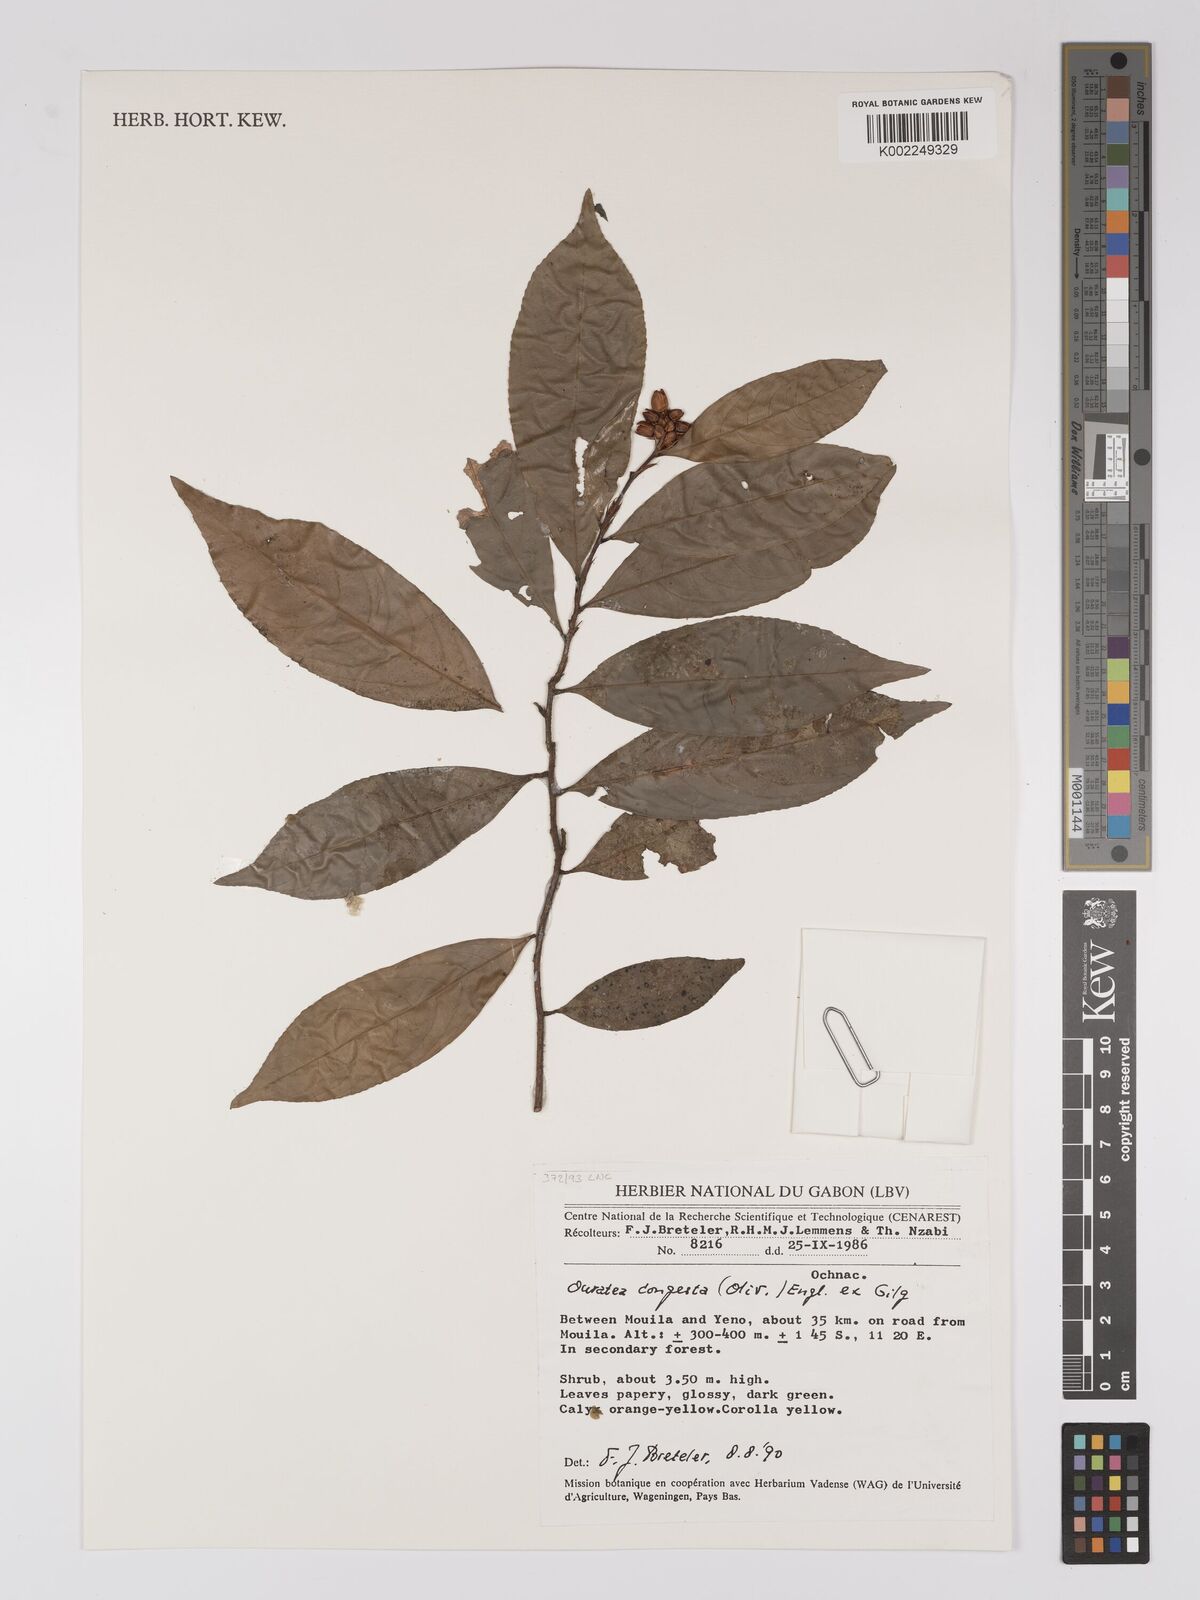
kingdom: Plantae
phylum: Tracheophyta
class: Magnoliopsida
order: Malpighiales
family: Ochnaceae
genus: Campylospermum
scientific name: Campylospermum congestum
